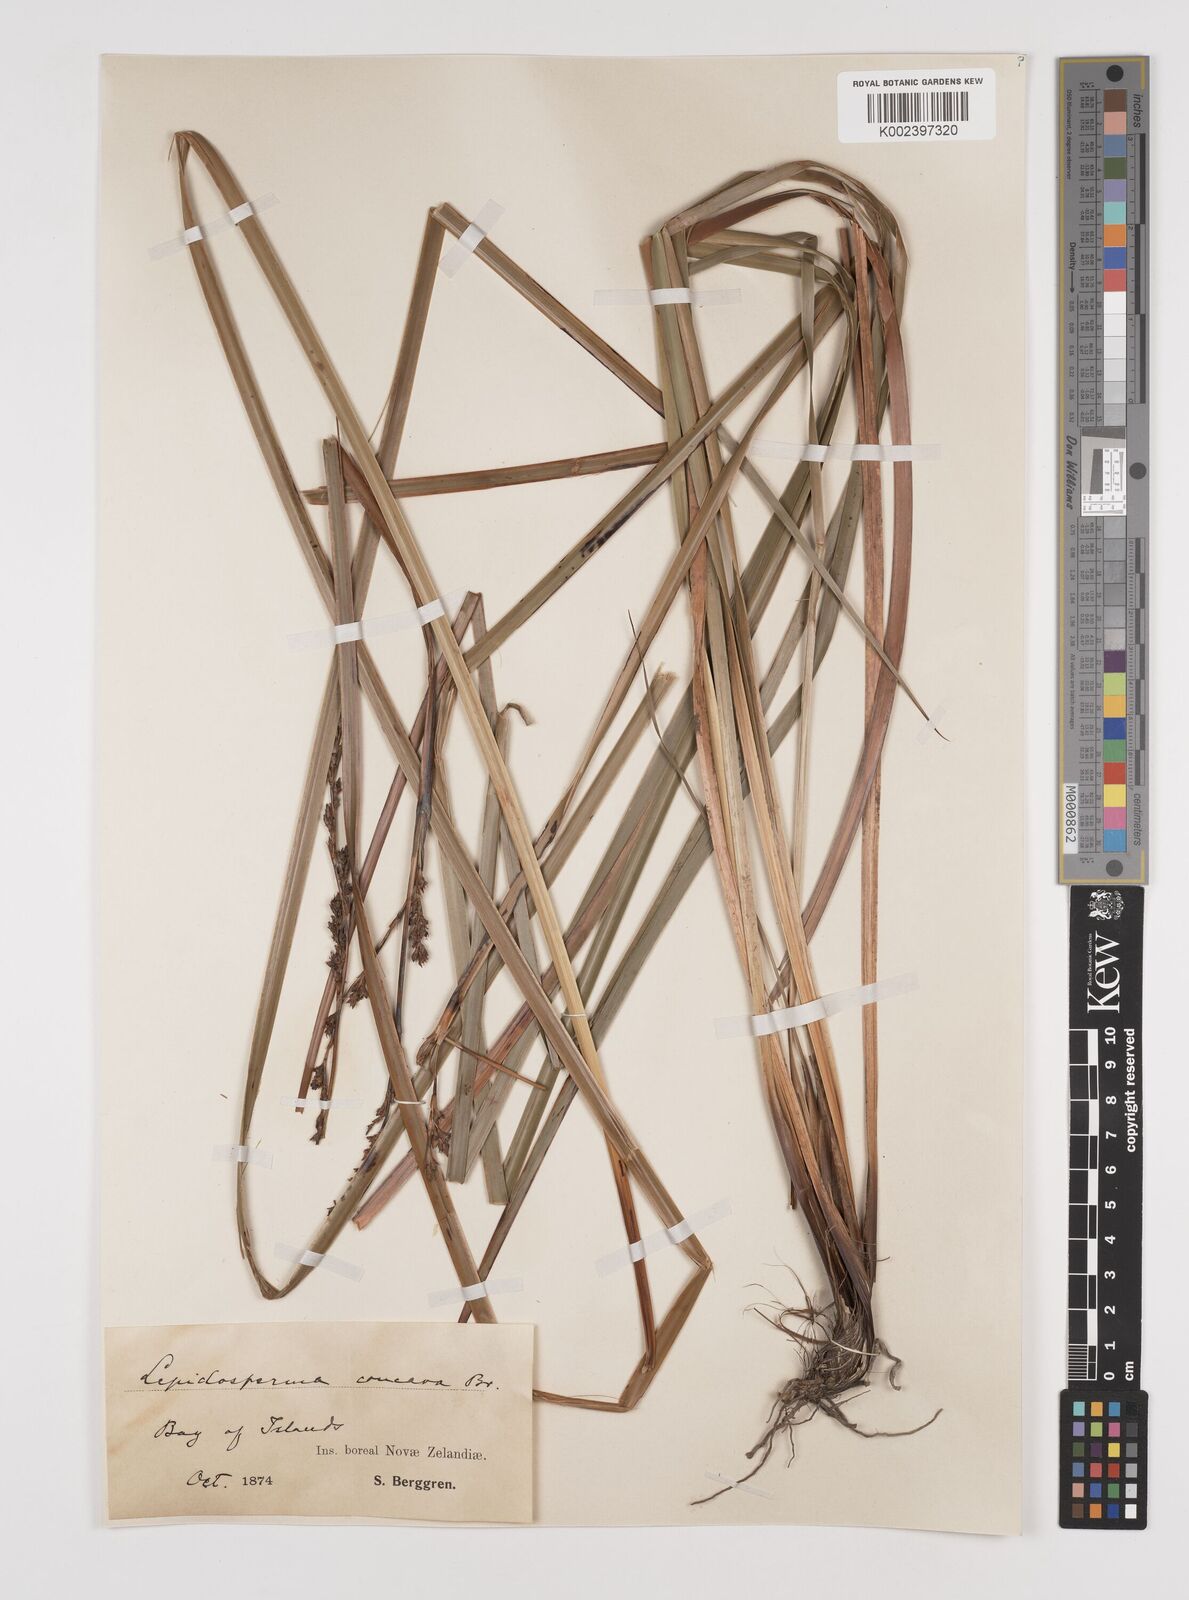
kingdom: Plantae
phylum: Tracheophyta
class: Liliopsida
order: Poales
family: Cyperaceae
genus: Lepidosperma
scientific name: Lepidosperma laterale
